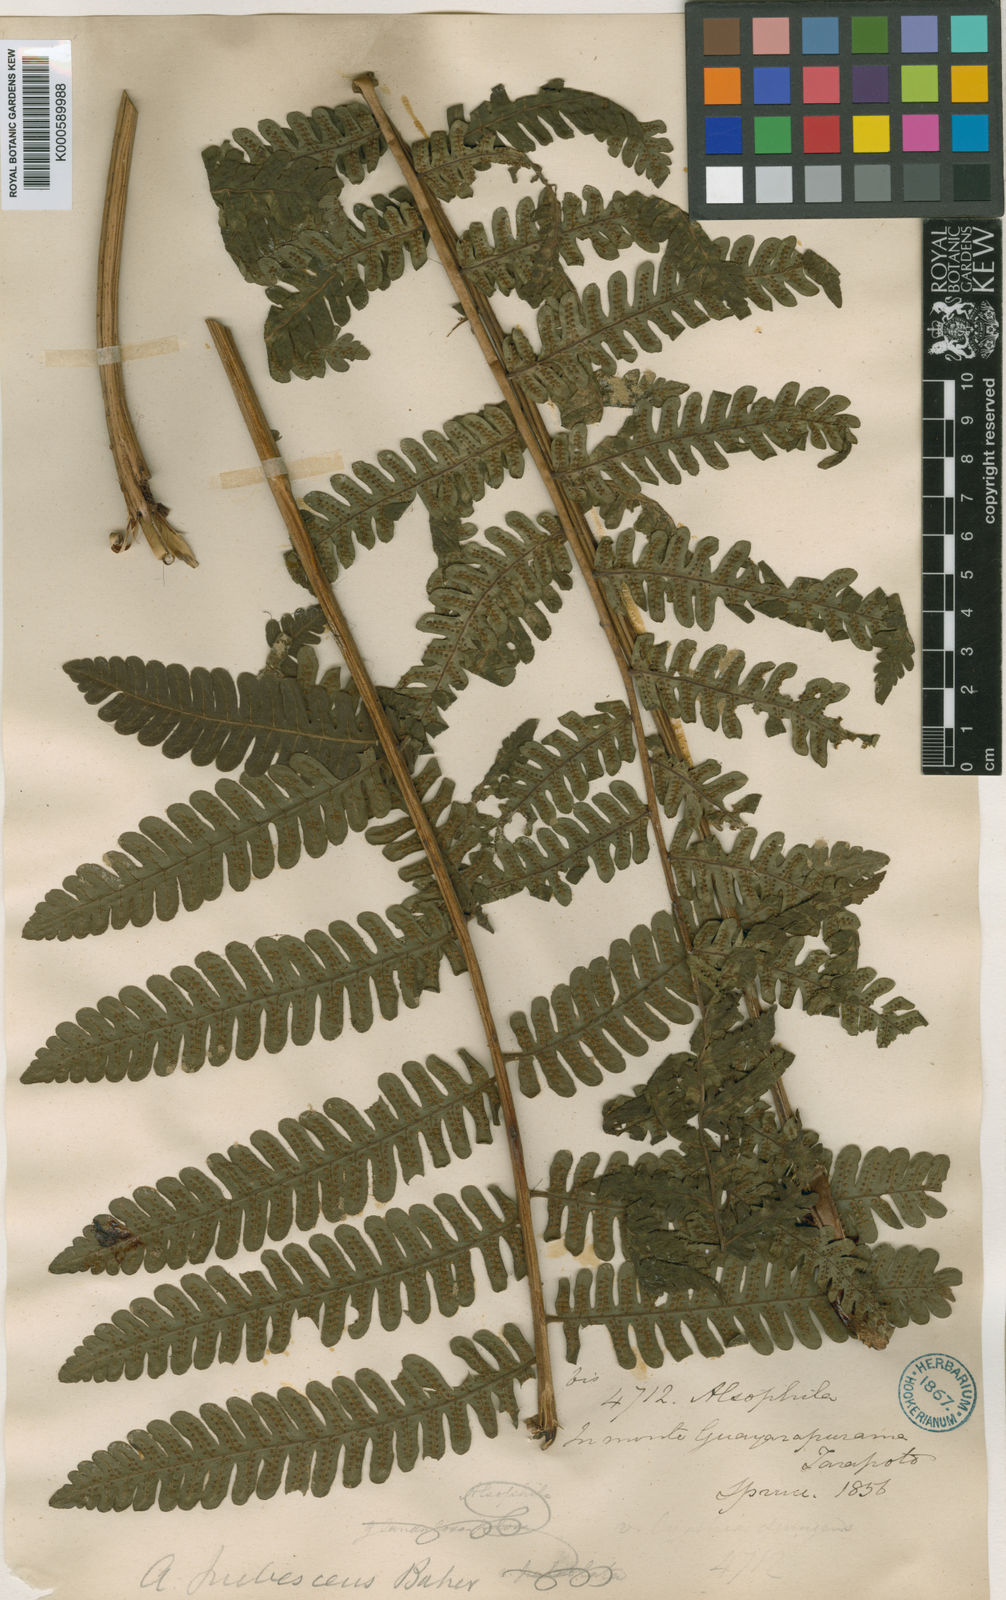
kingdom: Plantae
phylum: Tracheophyta
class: Polypodiopsida
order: Cyatheales
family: Cyatheaceae
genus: Alsophila
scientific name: Alsophila auneae
